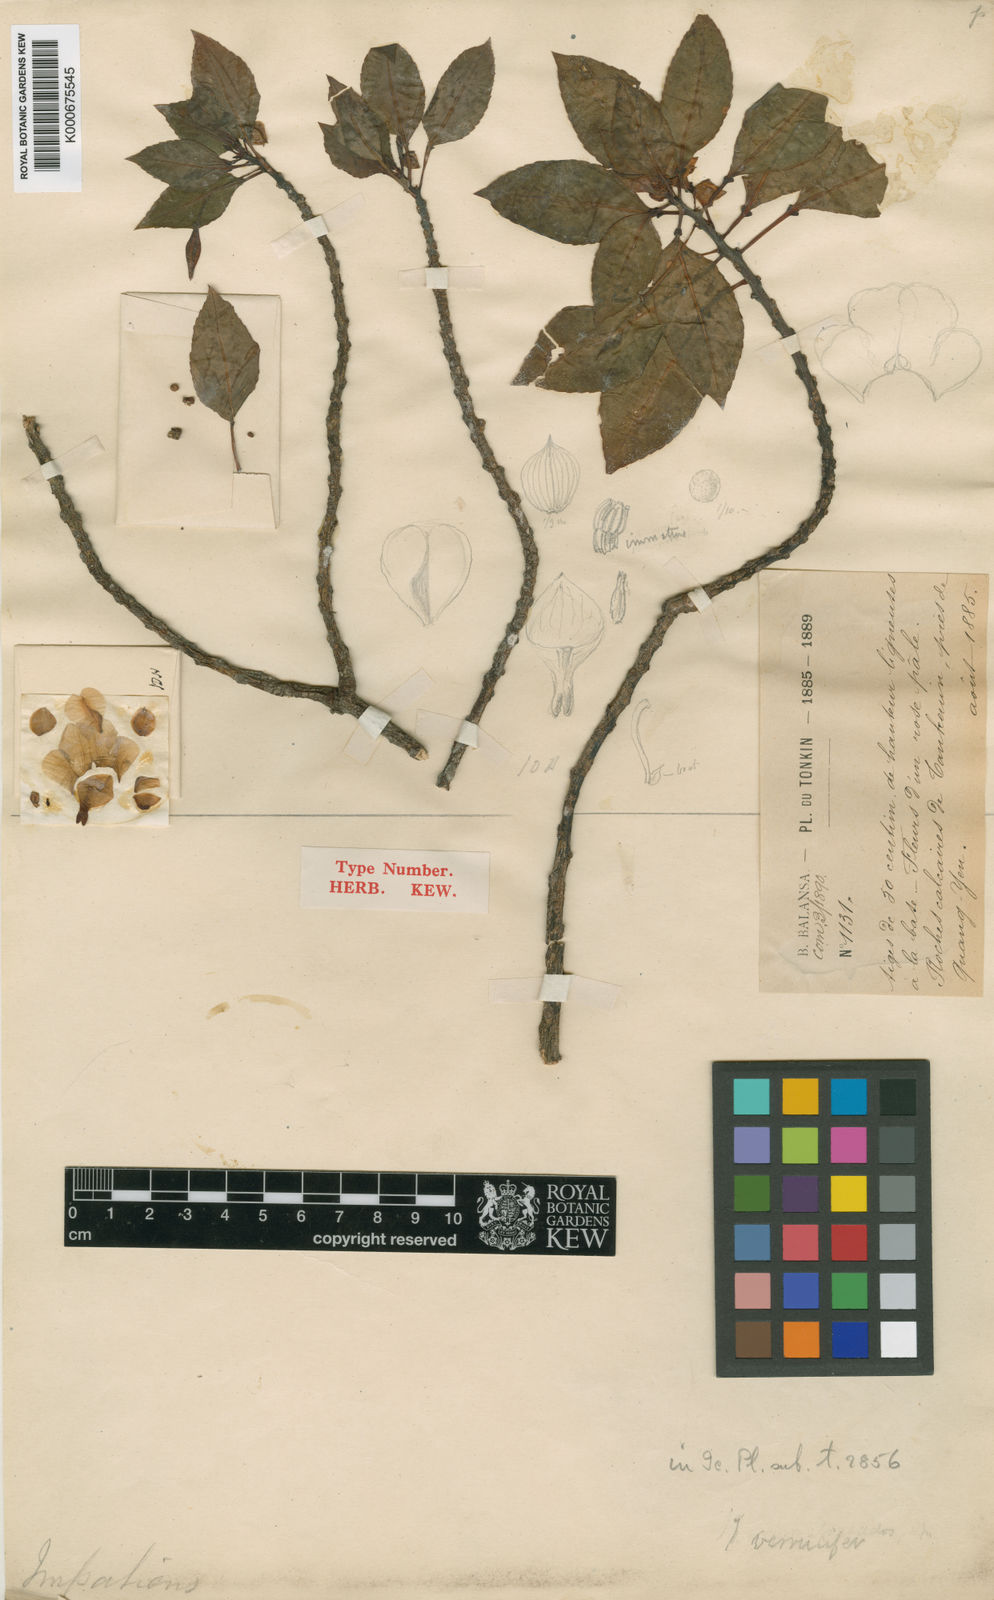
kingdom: Plantae
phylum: Tracheophyta
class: Magnoliopsida
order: Ericales
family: Balsaminaceae
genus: Impatiens
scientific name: Impatiens verrucifer
